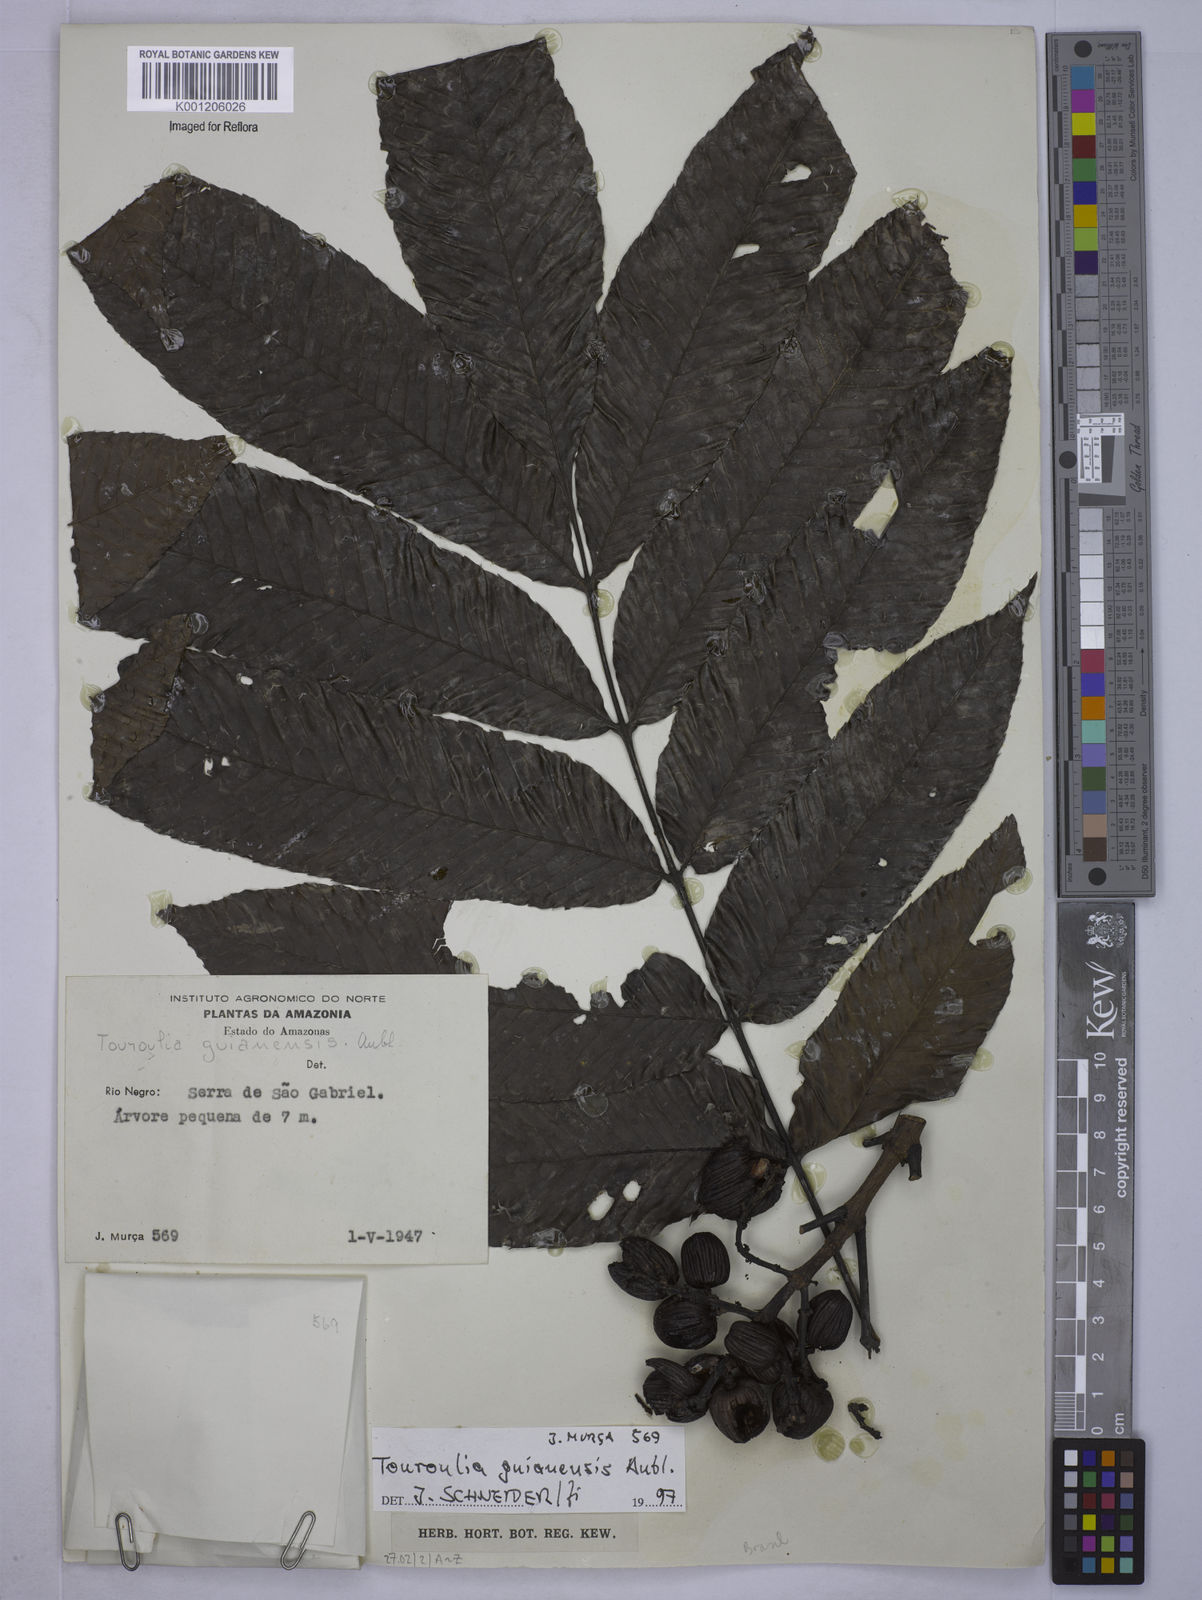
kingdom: Plantae
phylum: Tracheophyta
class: Magnoliopsida
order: Malpighiales
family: Quiinaceae
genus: Touroulia
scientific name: Touroulia guianensis
